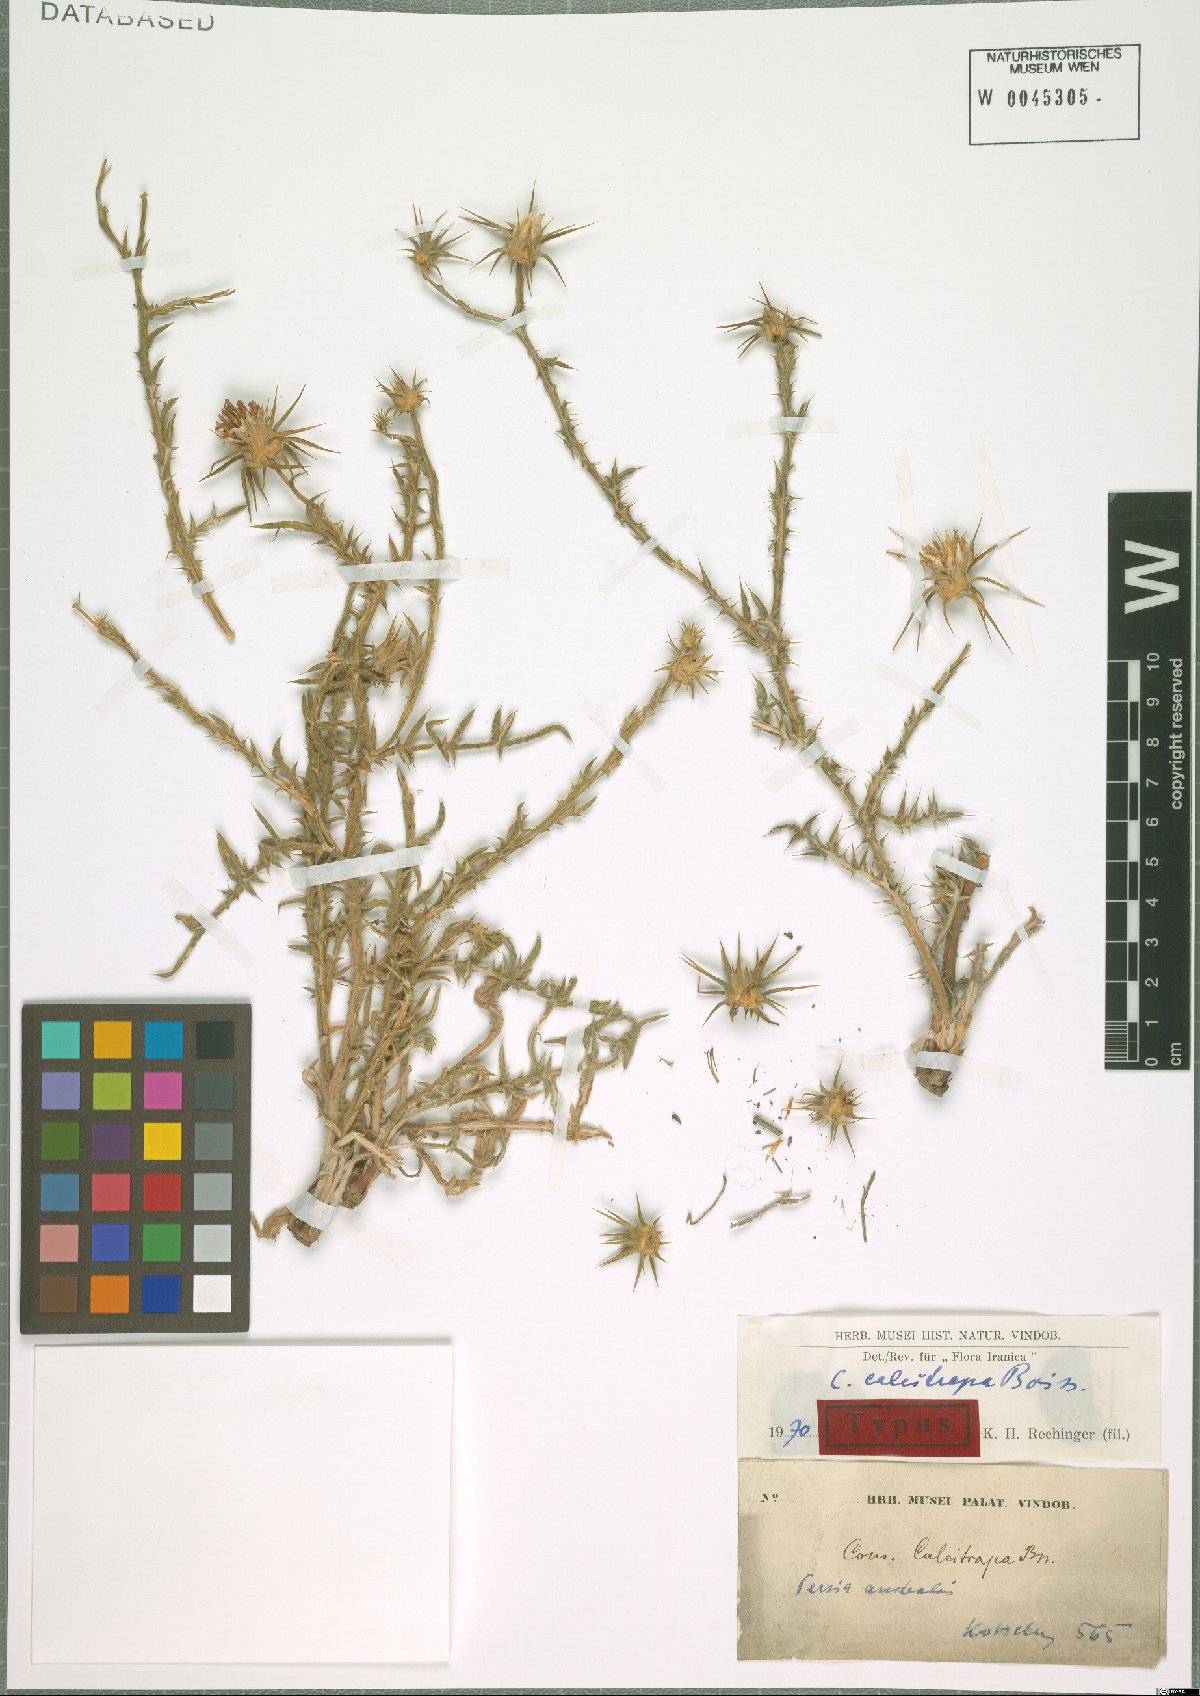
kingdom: Plantae
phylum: Tracheophyta
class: Magnoliopsida
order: Asterales
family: Asteraceae
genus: Cousinia
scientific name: Cousinia calcitrapa
